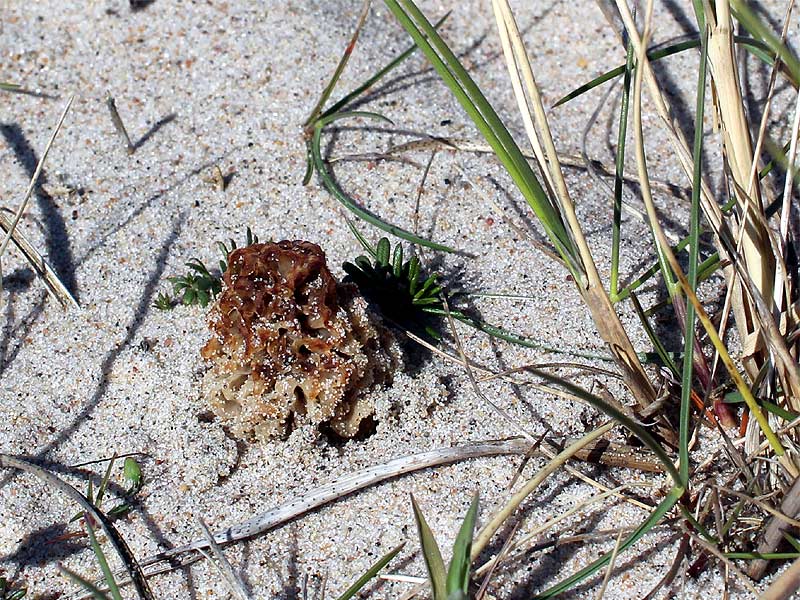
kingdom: Fungi
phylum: Ascomycota
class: Pezizomycetes
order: Pezizales
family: Morchellaceae
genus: Morchella
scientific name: Morchella esculenta
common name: almindelig morkel
